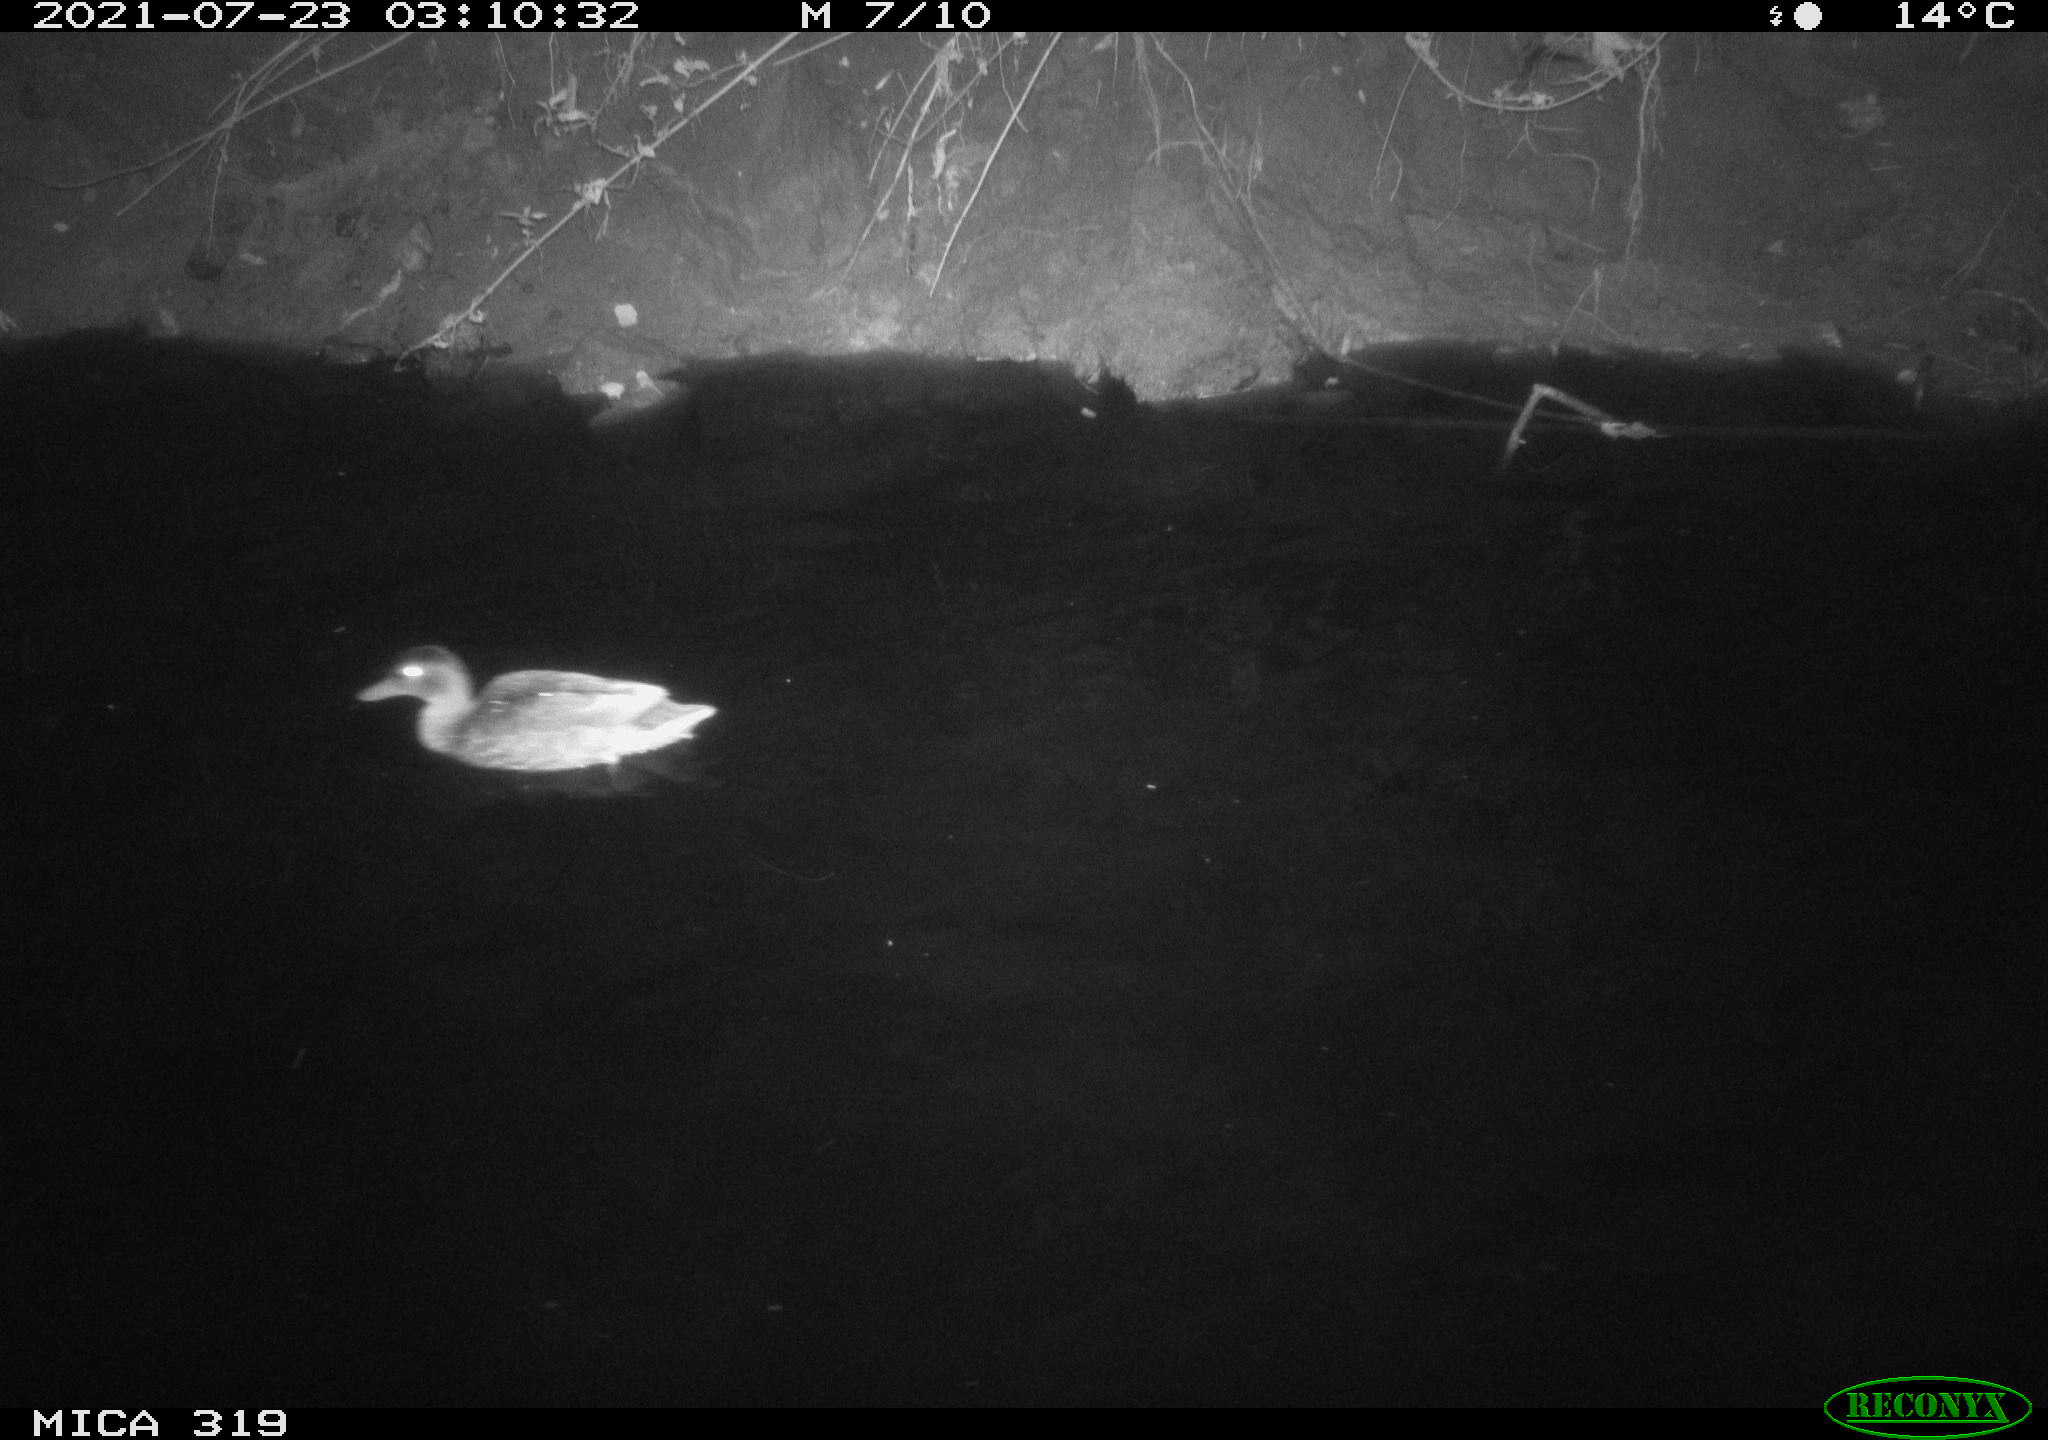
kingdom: Animalia
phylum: Chordata
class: Aves
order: Anseriformes
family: Anatidae
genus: Anas
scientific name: Anas platyrhynchos
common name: Mallard
